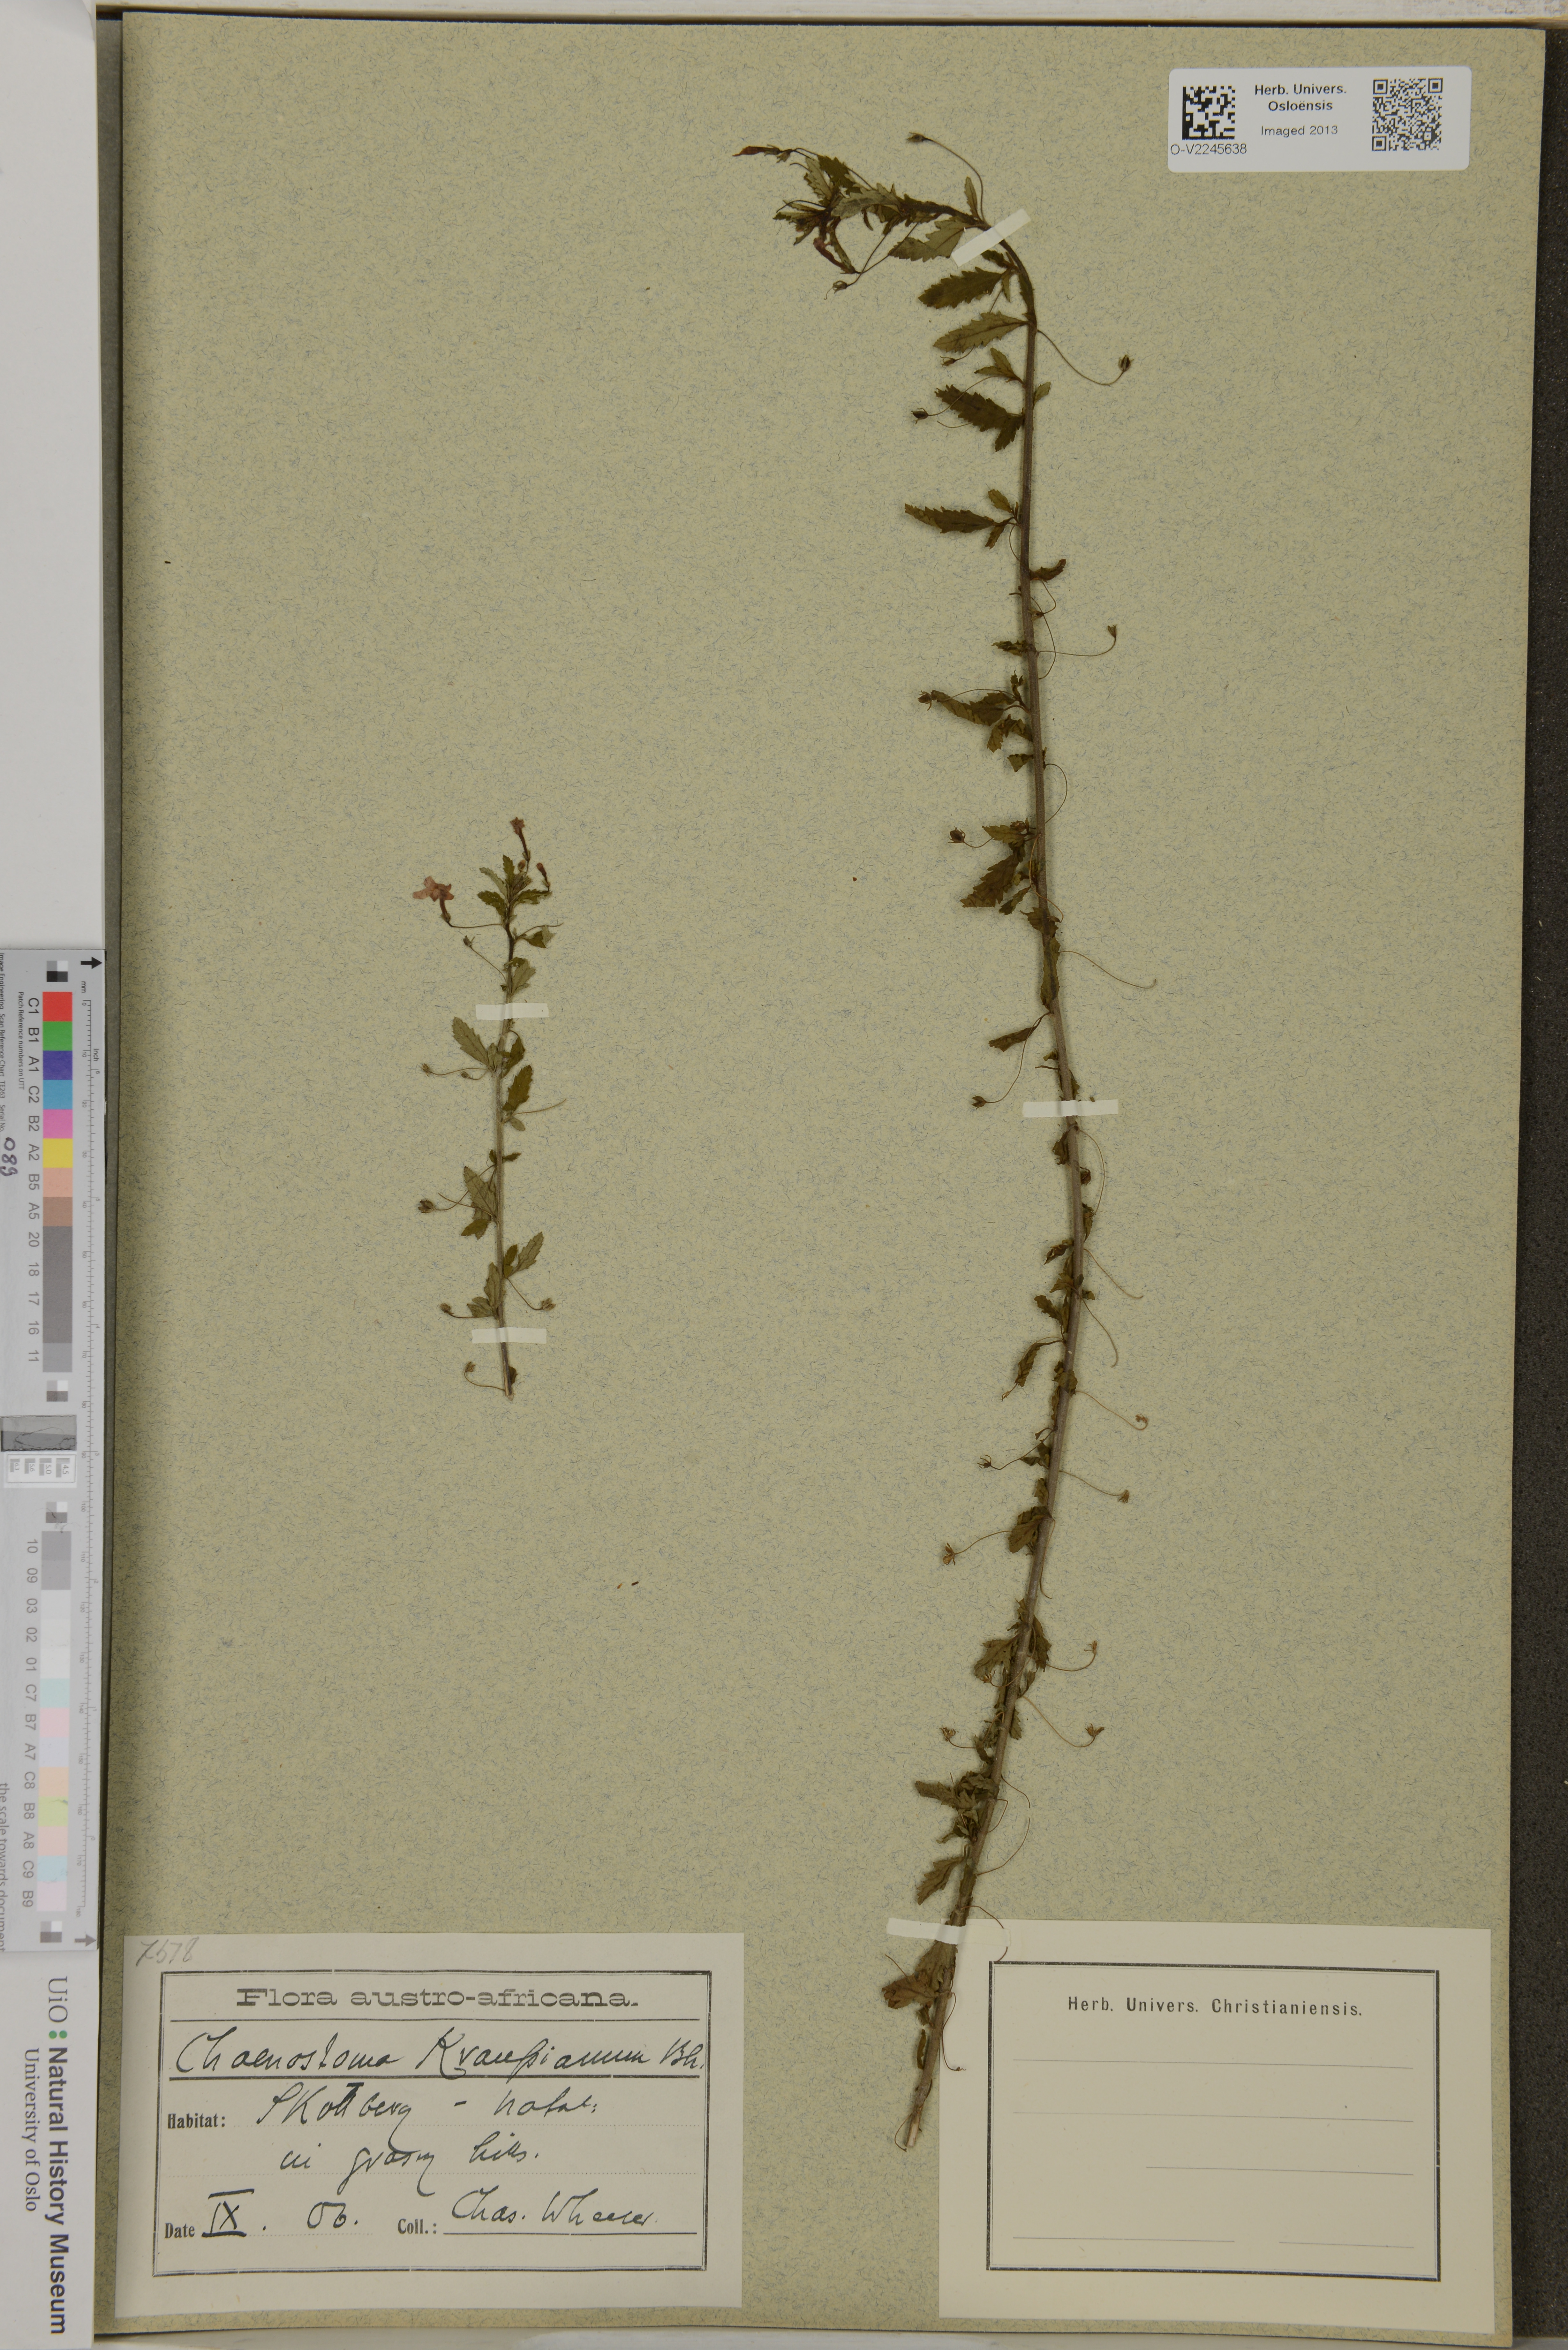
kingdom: Plantae
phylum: Tracheophyta
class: Magnoliopsida
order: Lamiales
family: Scrophulariaceae
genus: Jamesbrittenia
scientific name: Jamesbrittenia kraussiana
